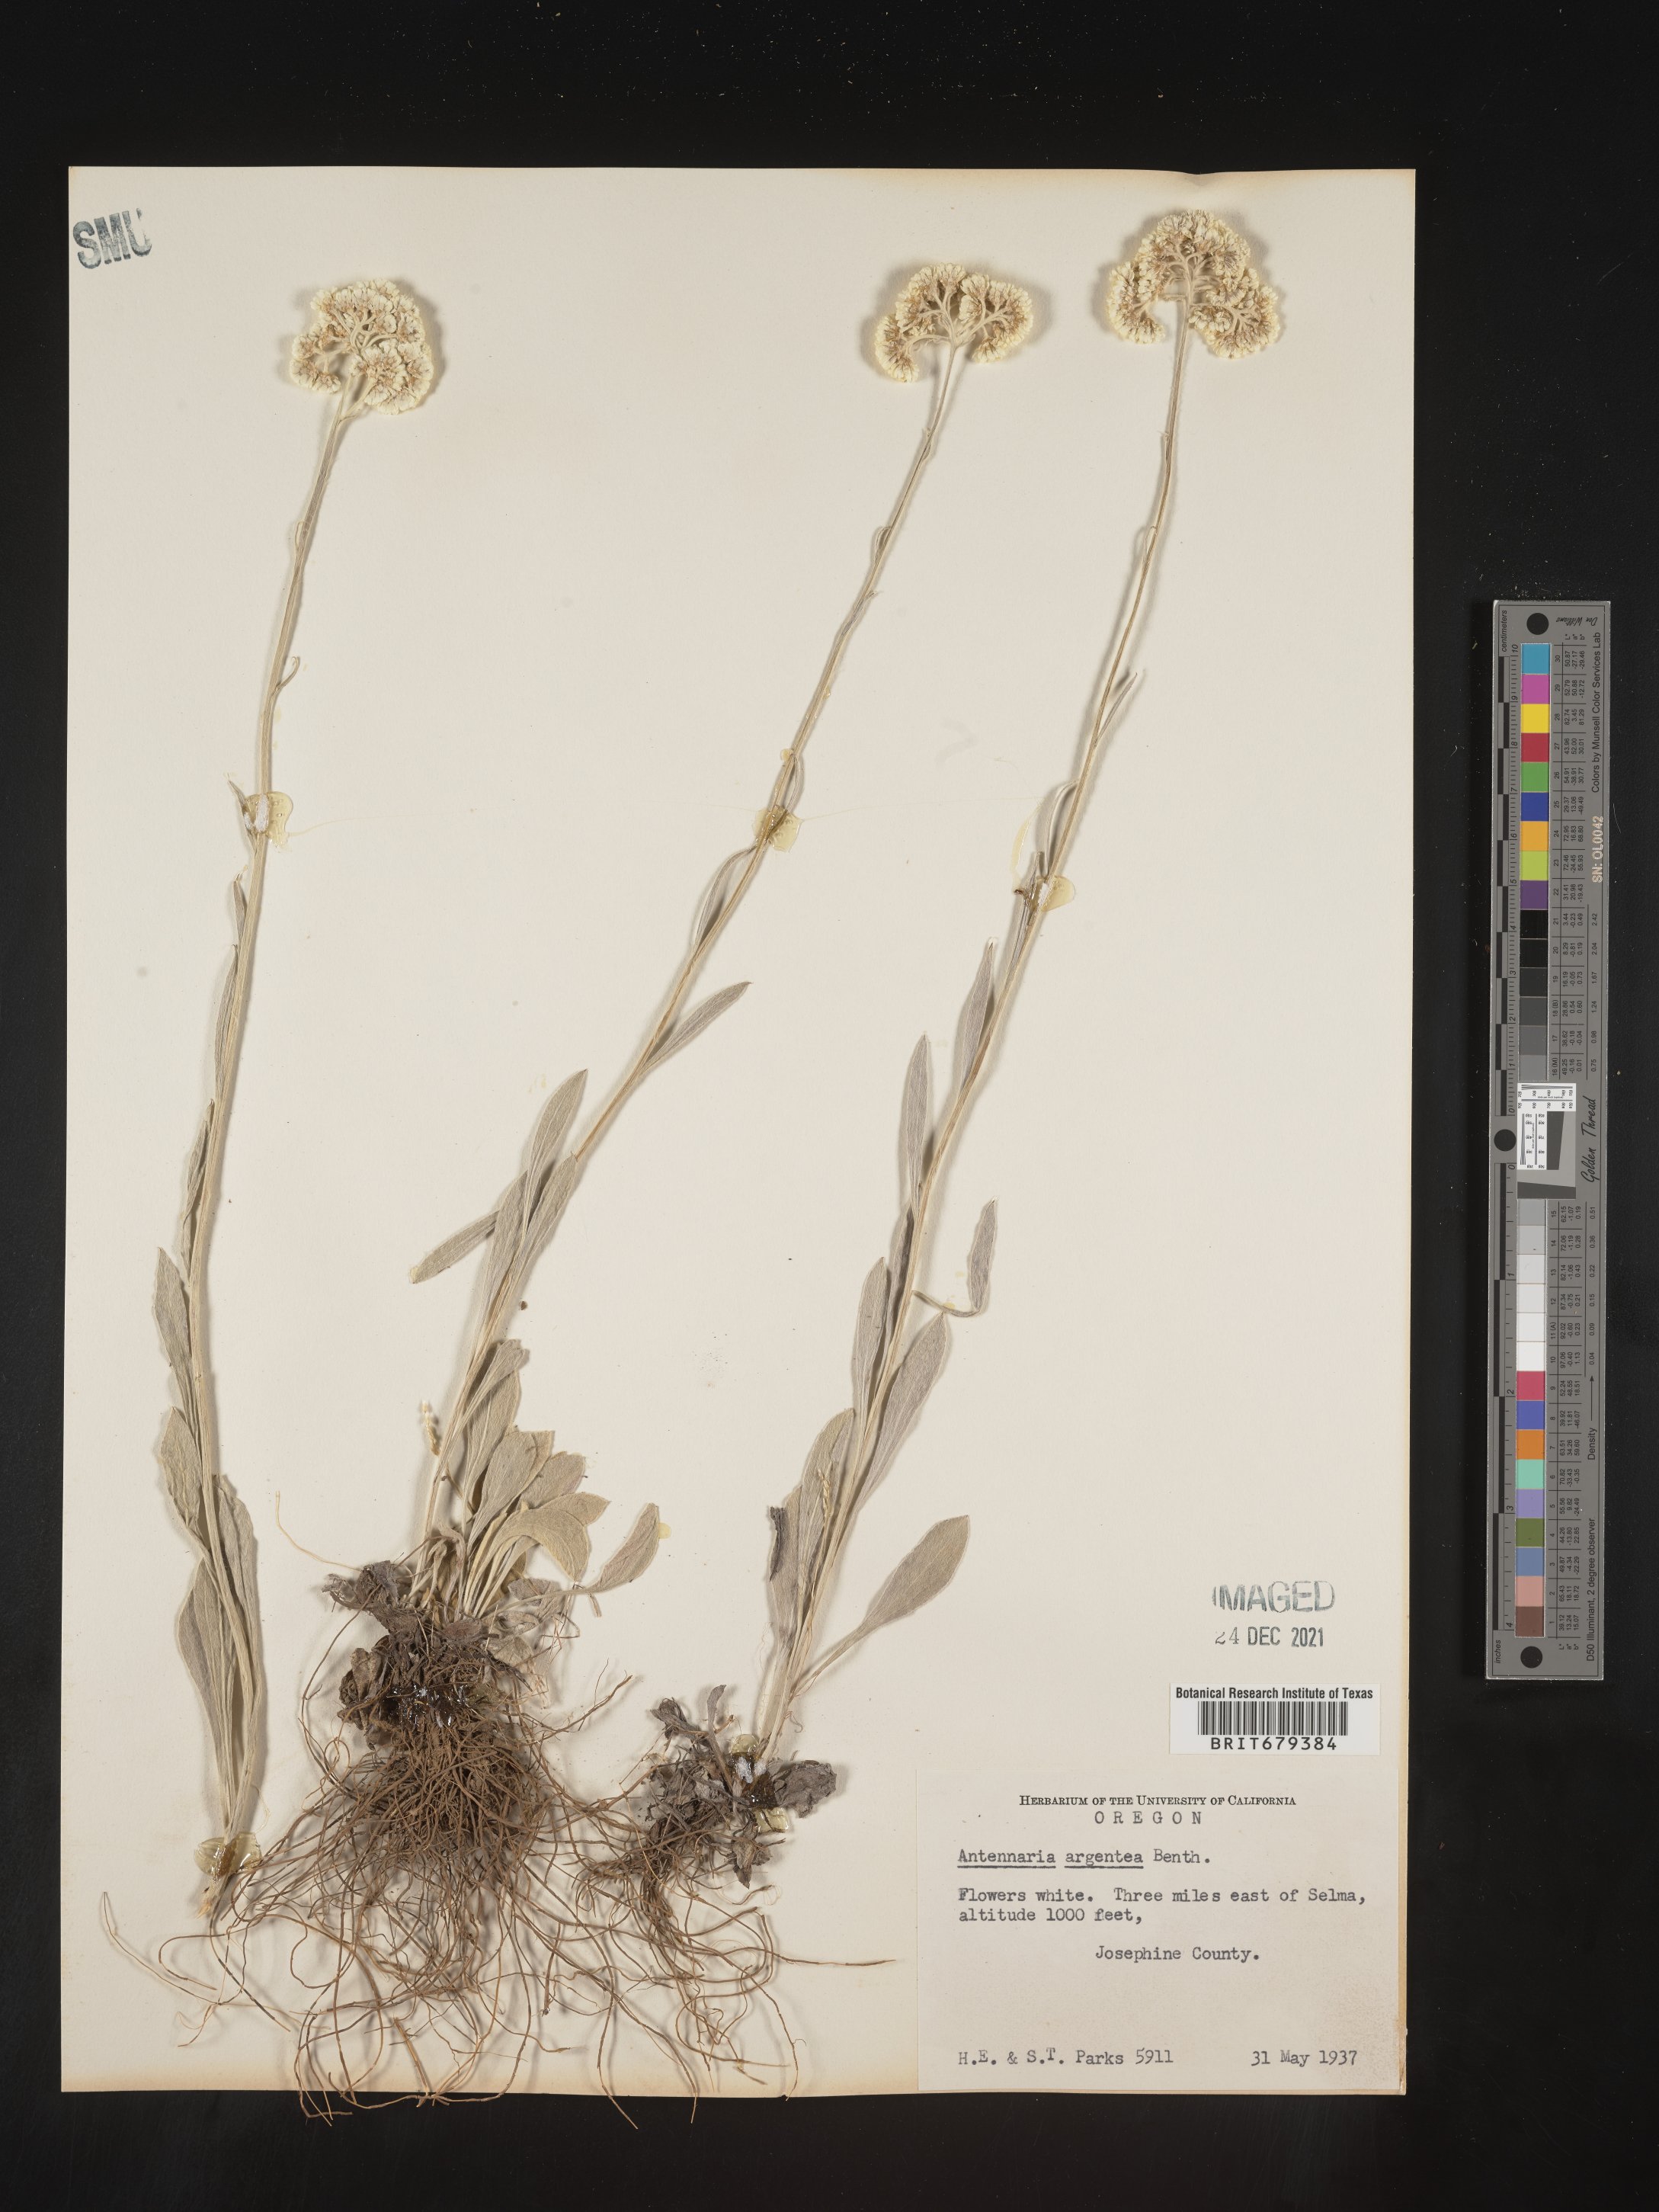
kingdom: Plantae
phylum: Tracheophyta
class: Magnoliopsida
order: Asterales
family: Asteraceae
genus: Antennaria
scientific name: Antennaria argentea
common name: Silver pussytoes
